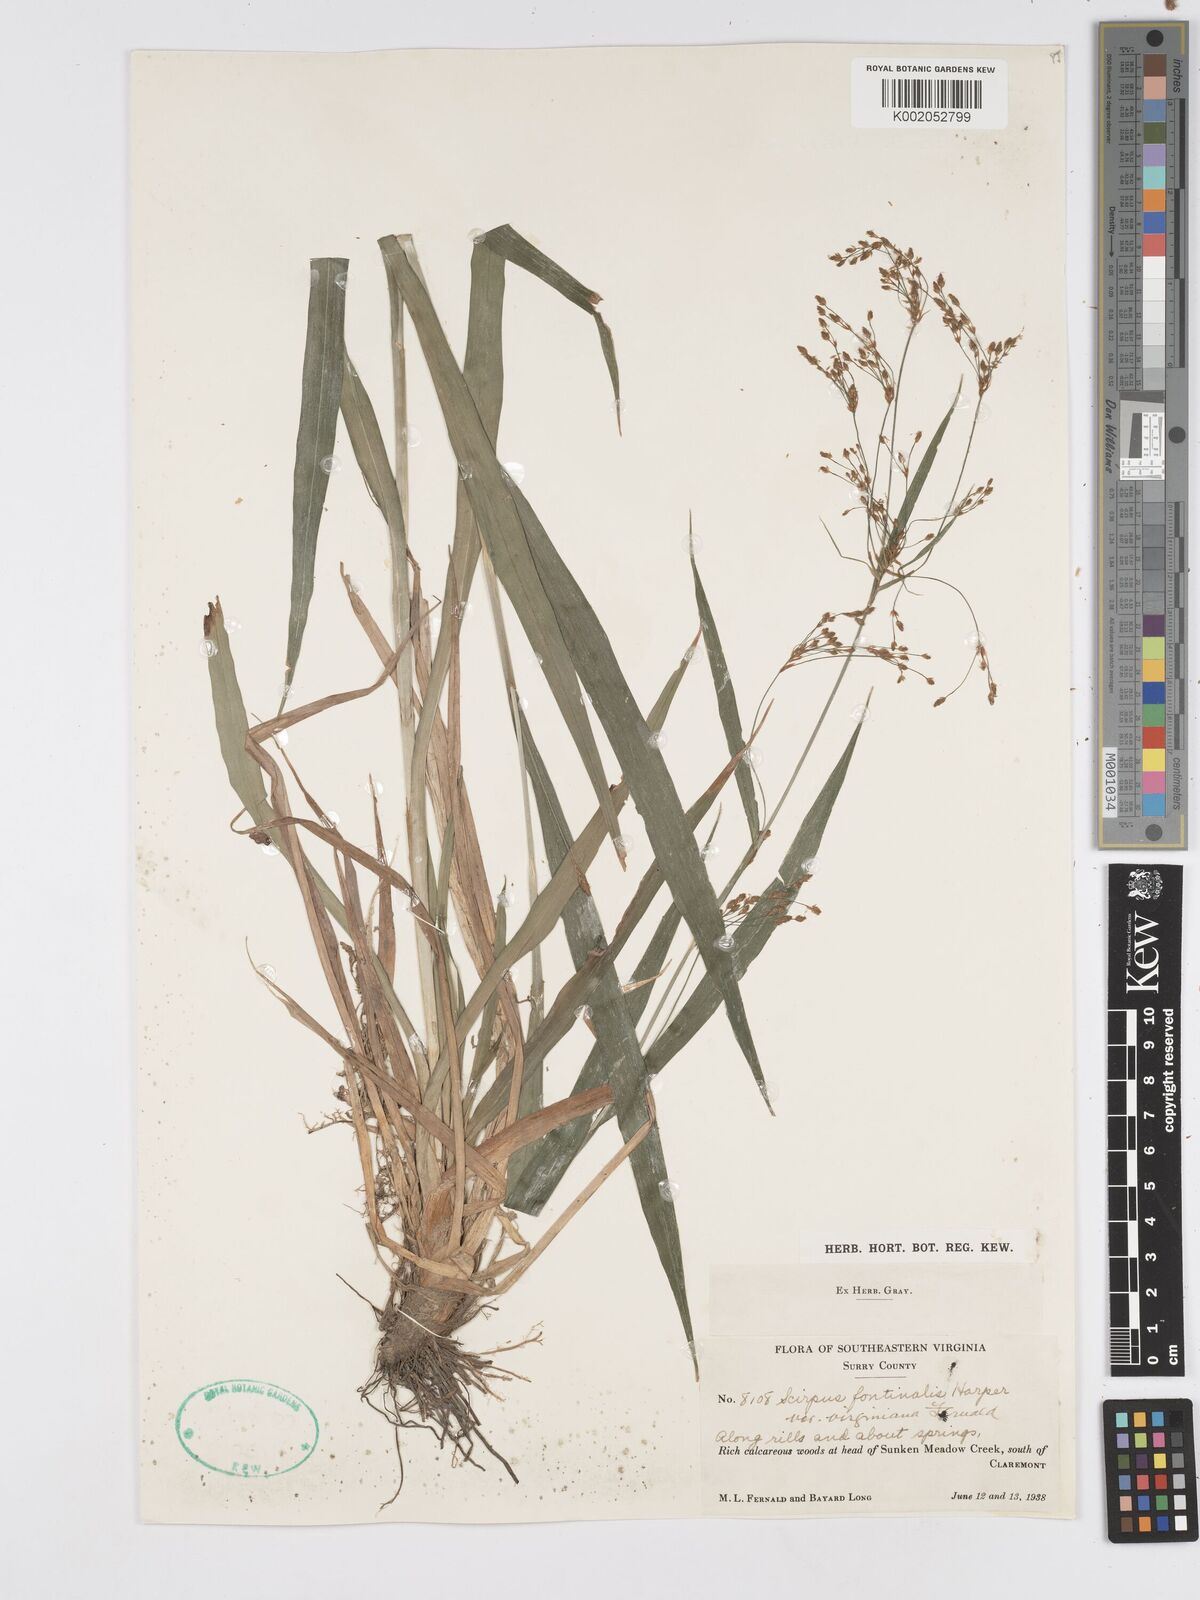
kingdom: Plantae
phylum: Tracheophyta
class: Liliopsida
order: Poales
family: Cyperaceae
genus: Scirpus
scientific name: Scirpus lineatus
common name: Drooping bulrush
